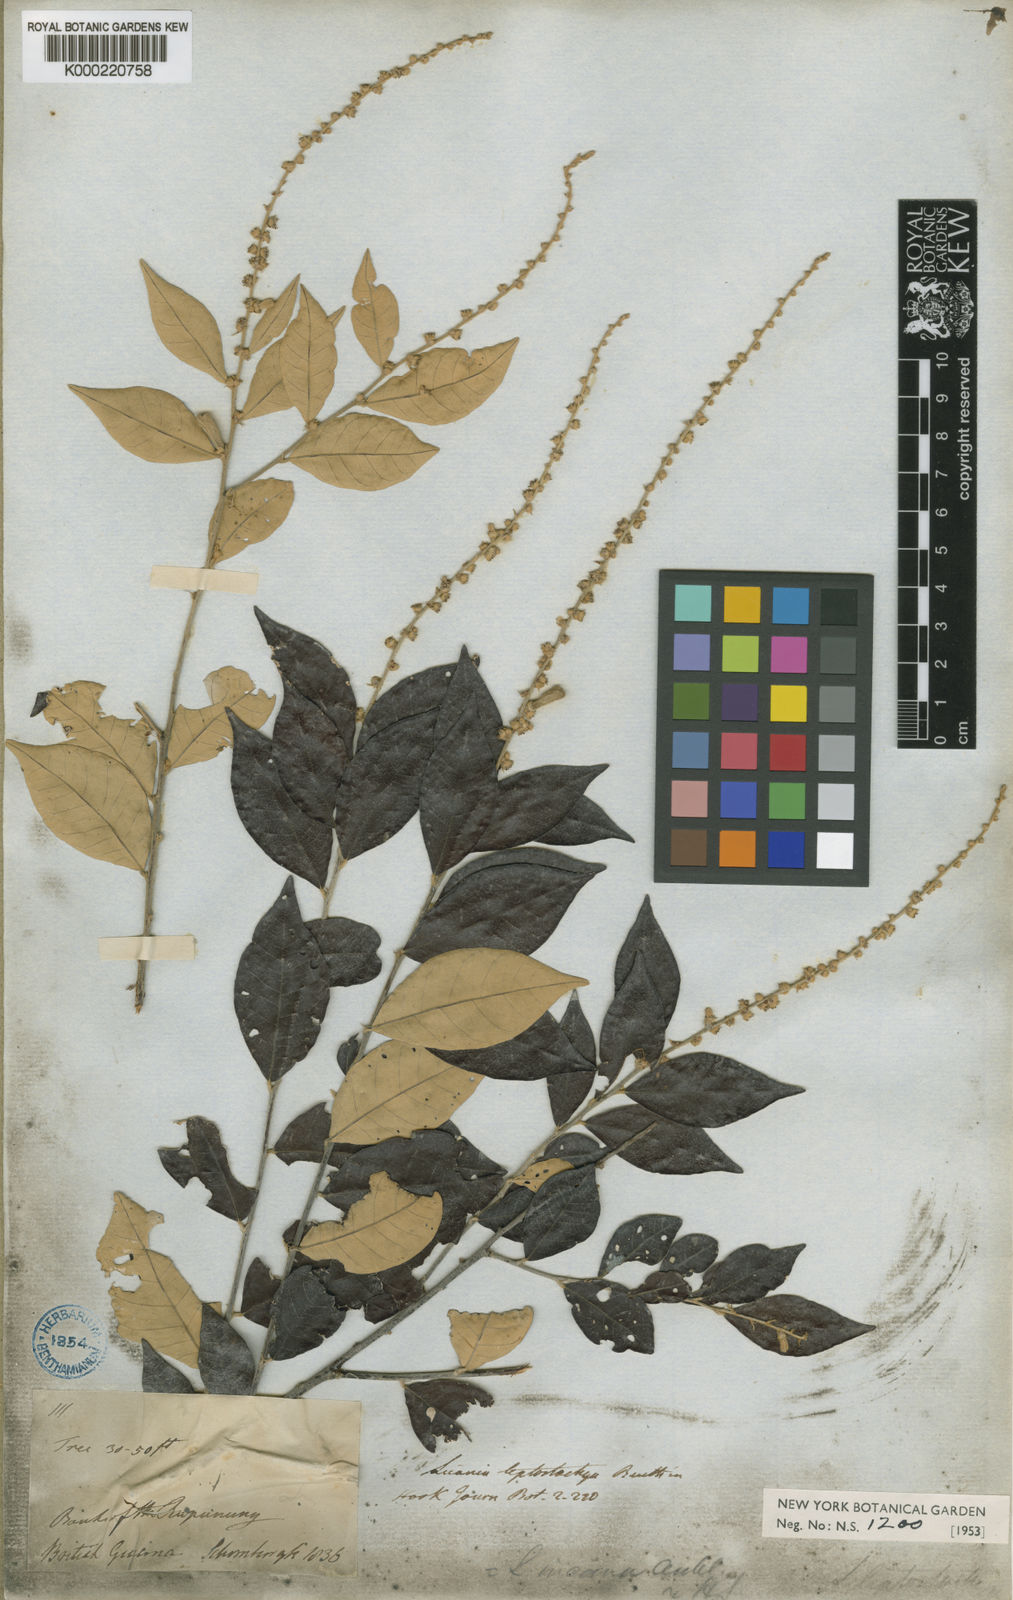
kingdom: Plantae
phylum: Tracheophyta
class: Magnoliopsida
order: Malpighiales
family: Chrysobalanaceae
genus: Licania
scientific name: Licania leptostachya
